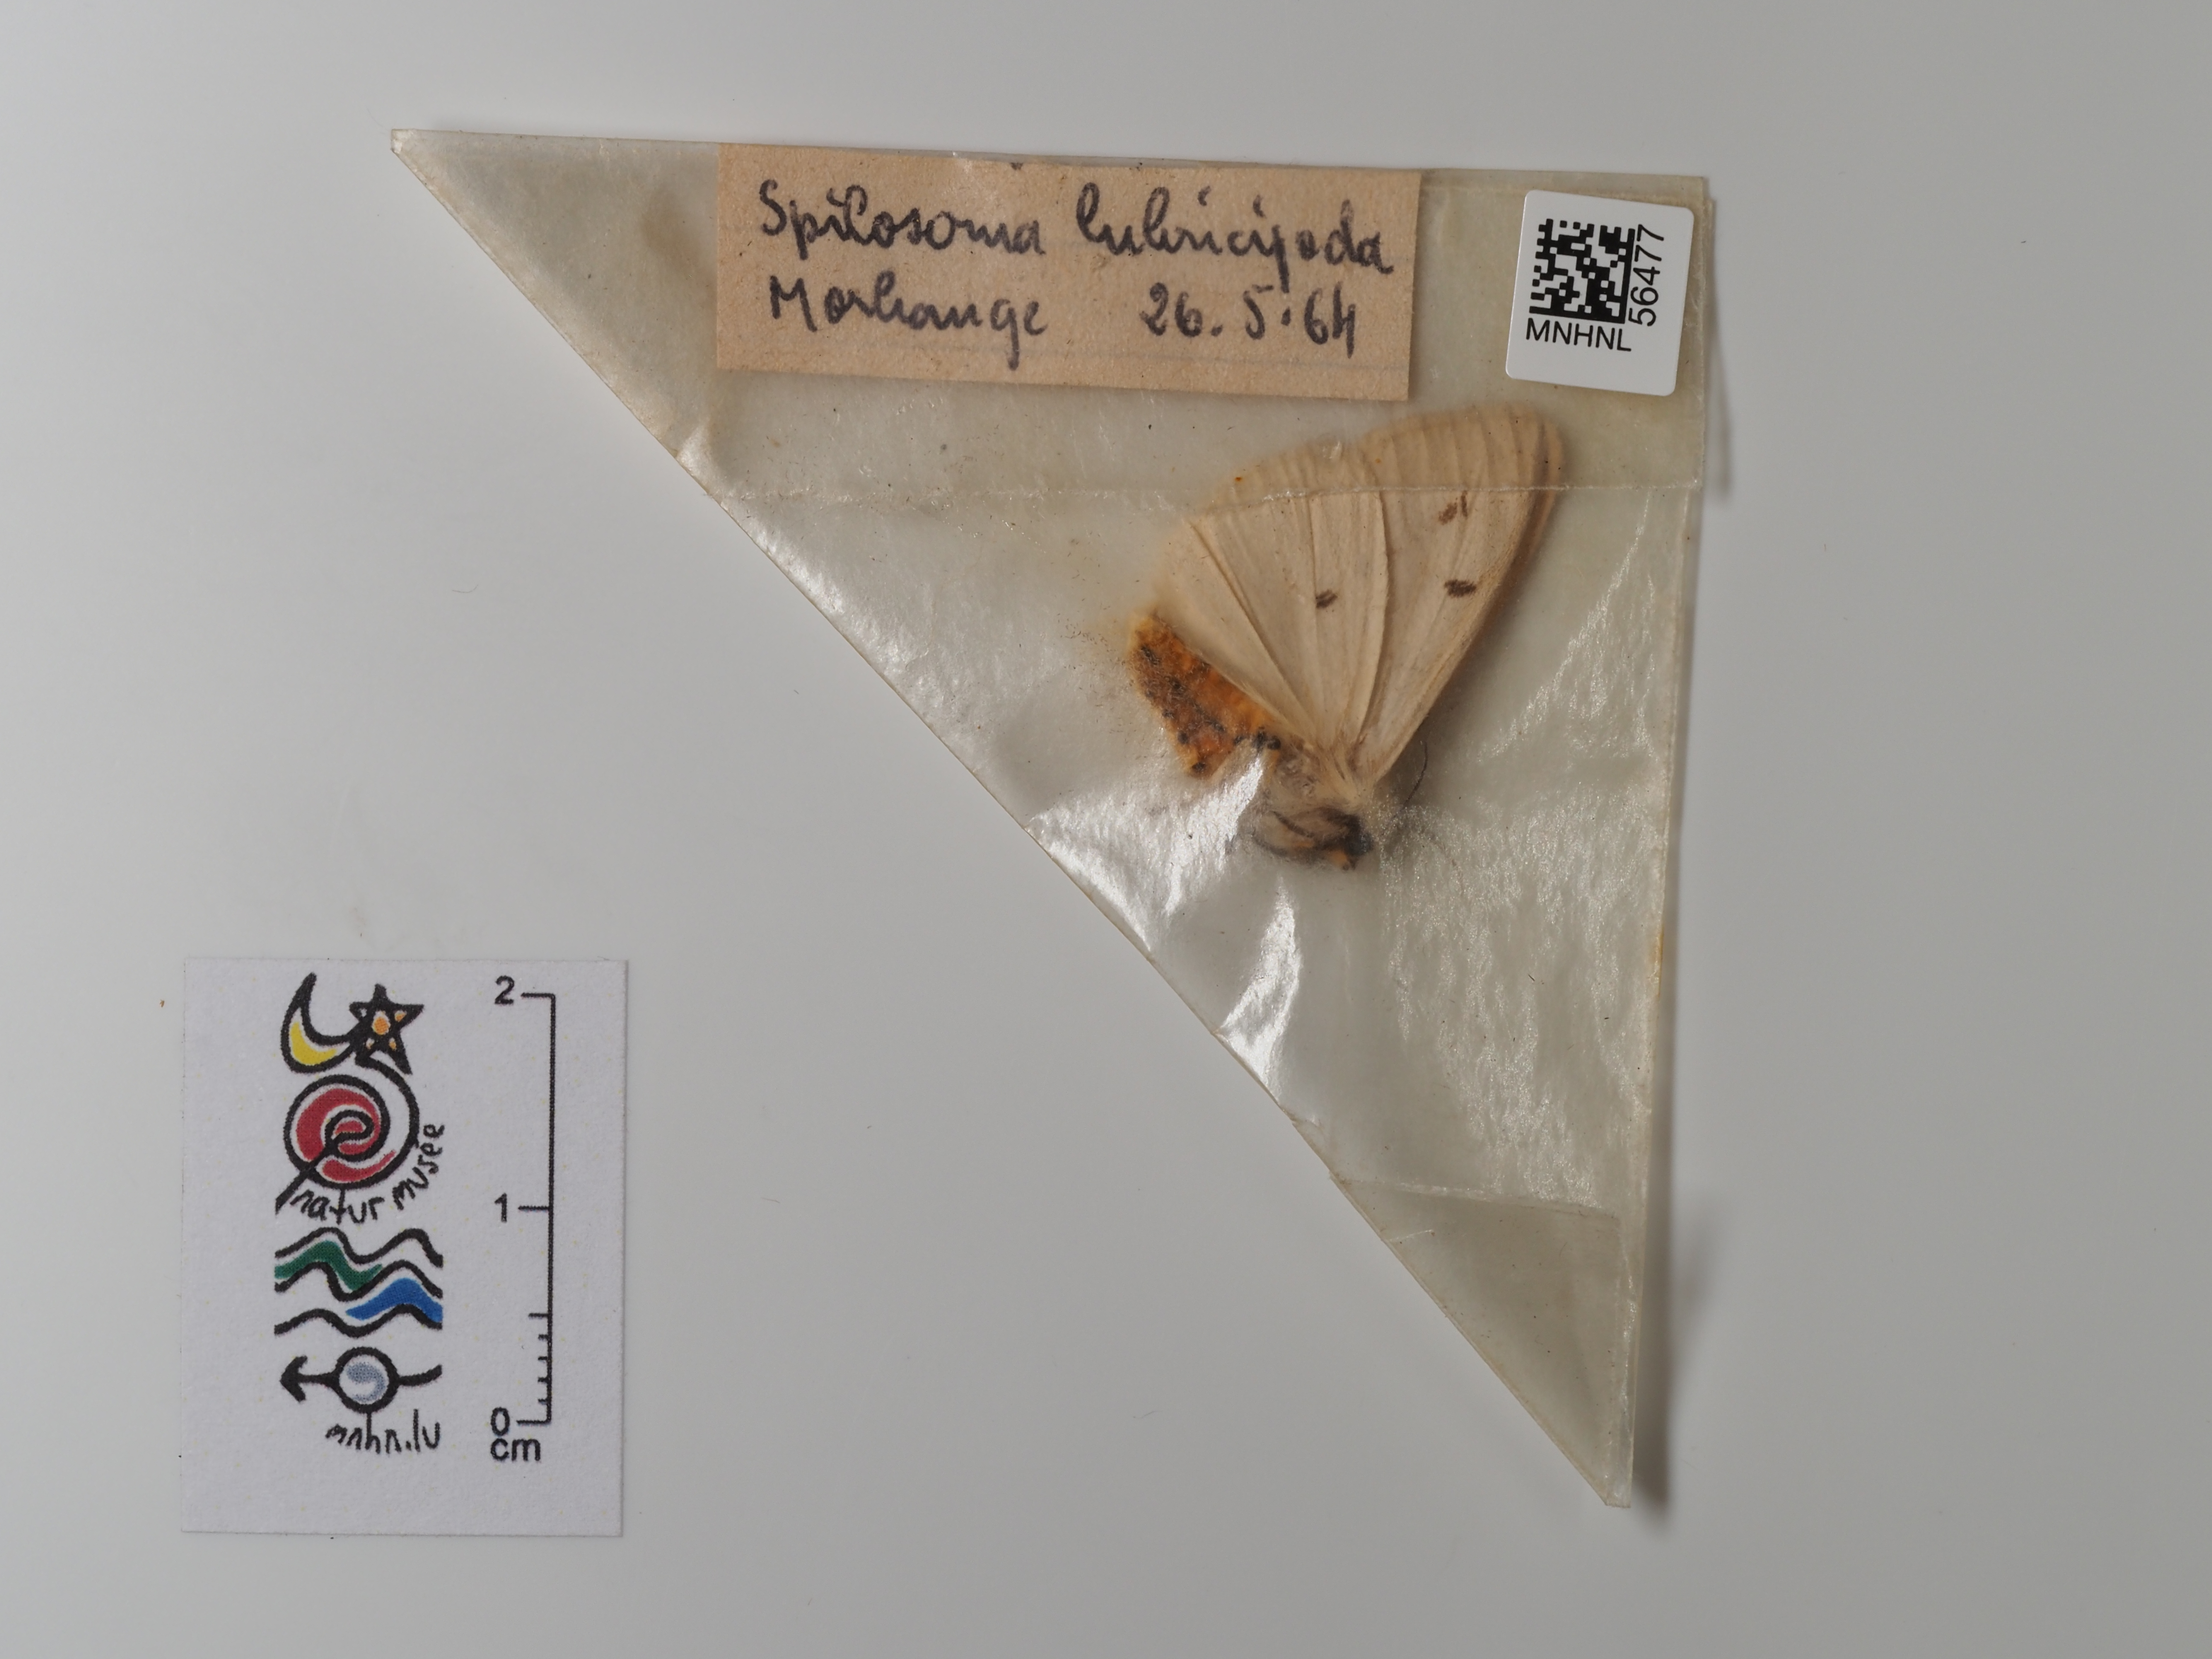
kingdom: Animalia
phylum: Arthropoda
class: Insecta
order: Lepidoptera
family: Erebidae
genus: Spilosoma
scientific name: Spilosoma lubricipeda
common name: White ermine
